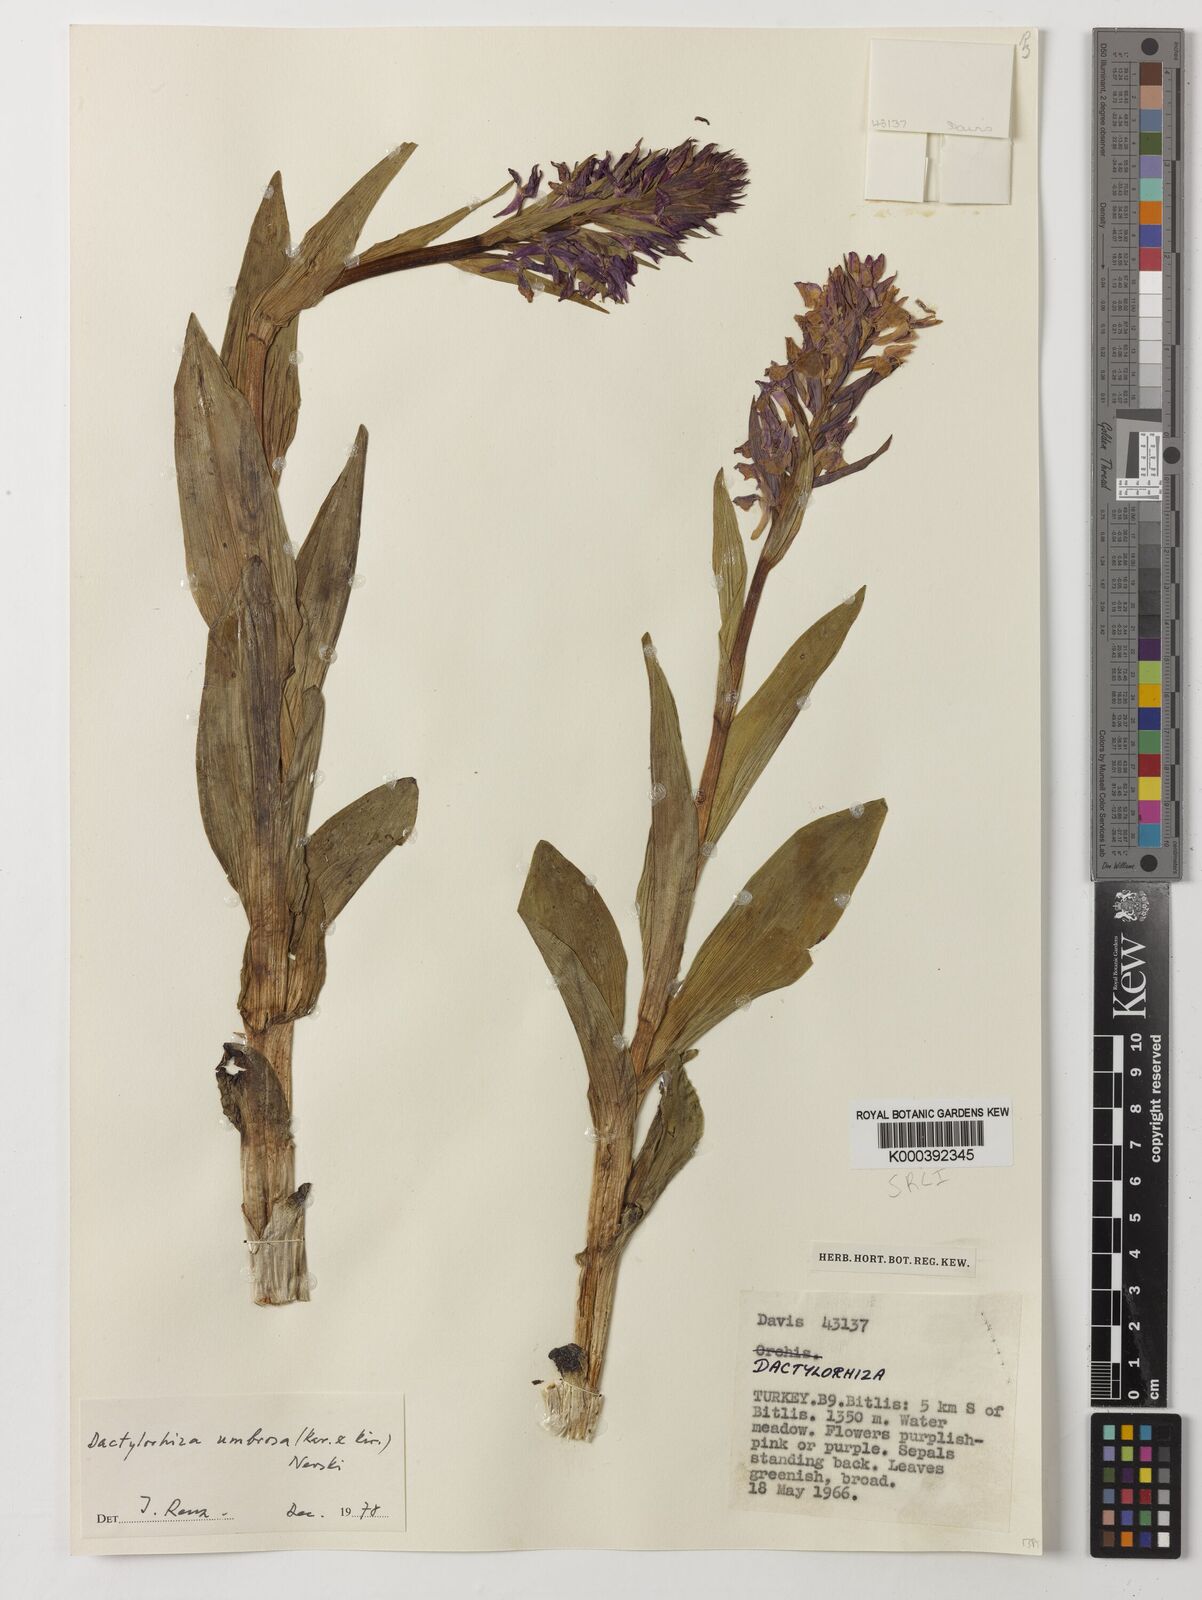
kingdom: Plantae
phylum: Tracheophyta
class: Liliopsida
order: Asparagales
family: Orchidaceae
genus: Dactylorhiza
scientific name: Dactylorhiza
